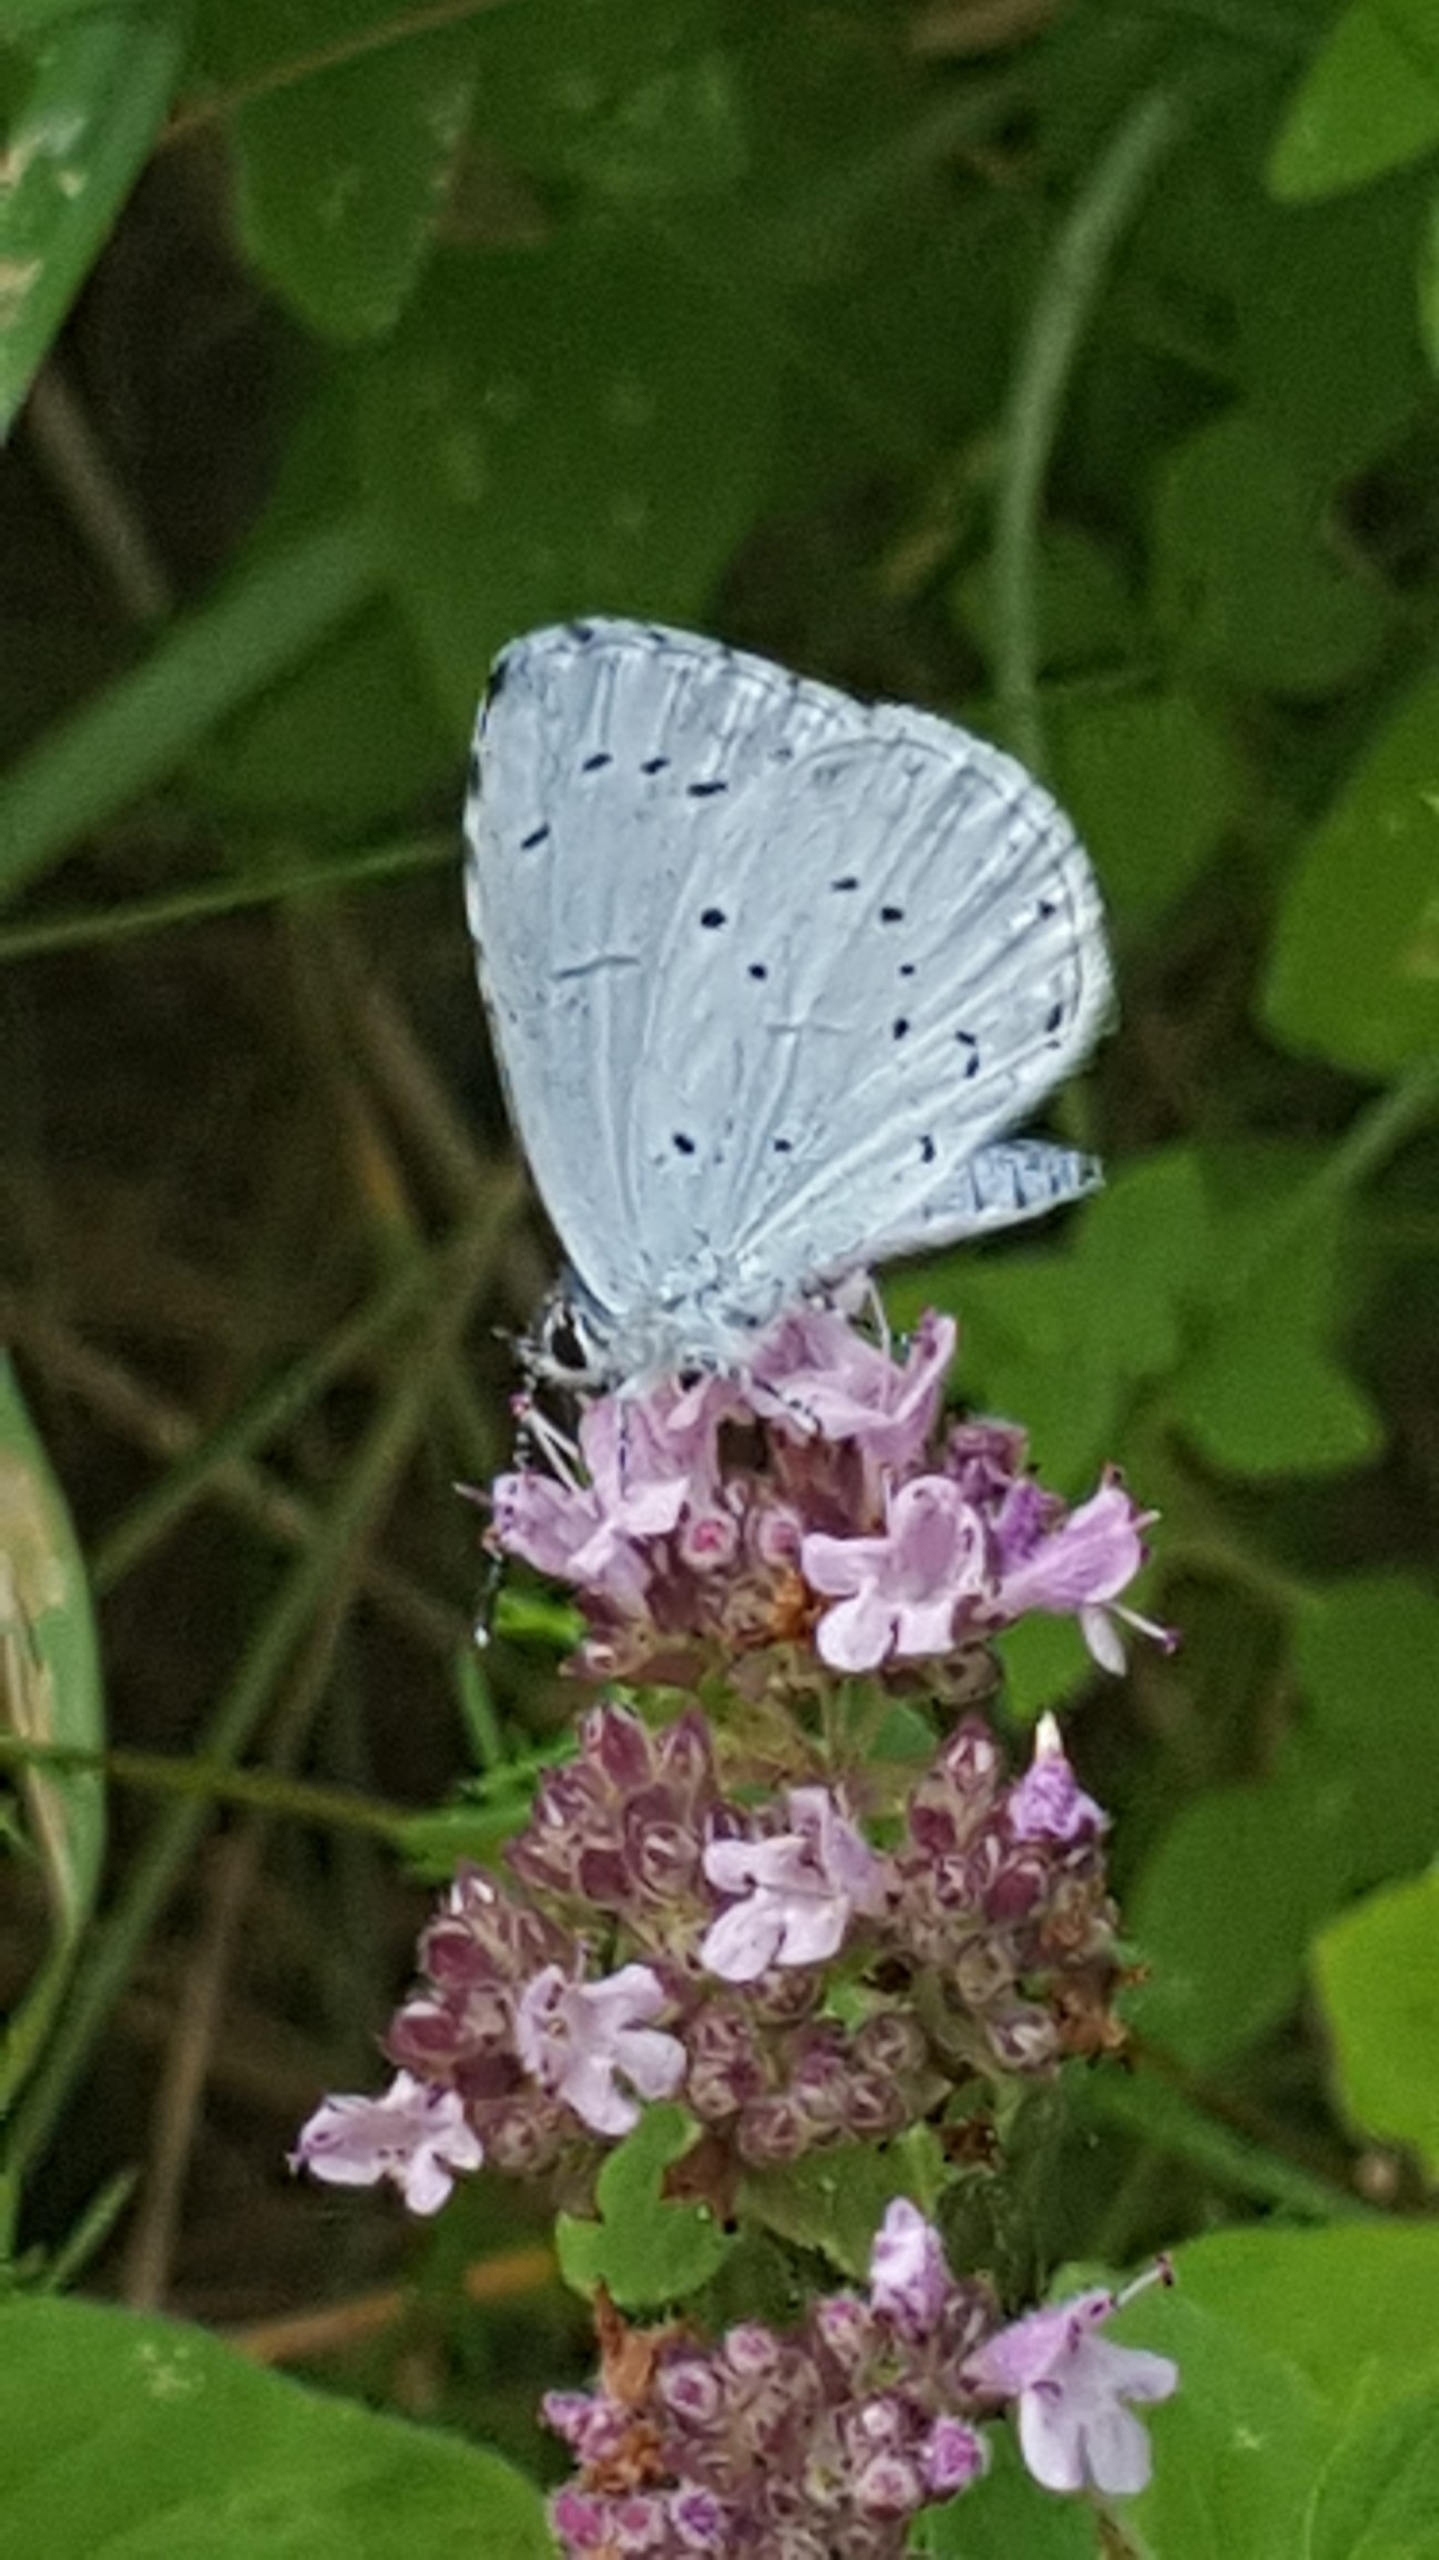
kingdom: Animalia
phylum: Arthropoda
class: Insecta
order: Lepidoptera
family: Lycaenidae
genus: Celastrina
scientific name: Celastrina argiolus
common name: Skovblåfugl
